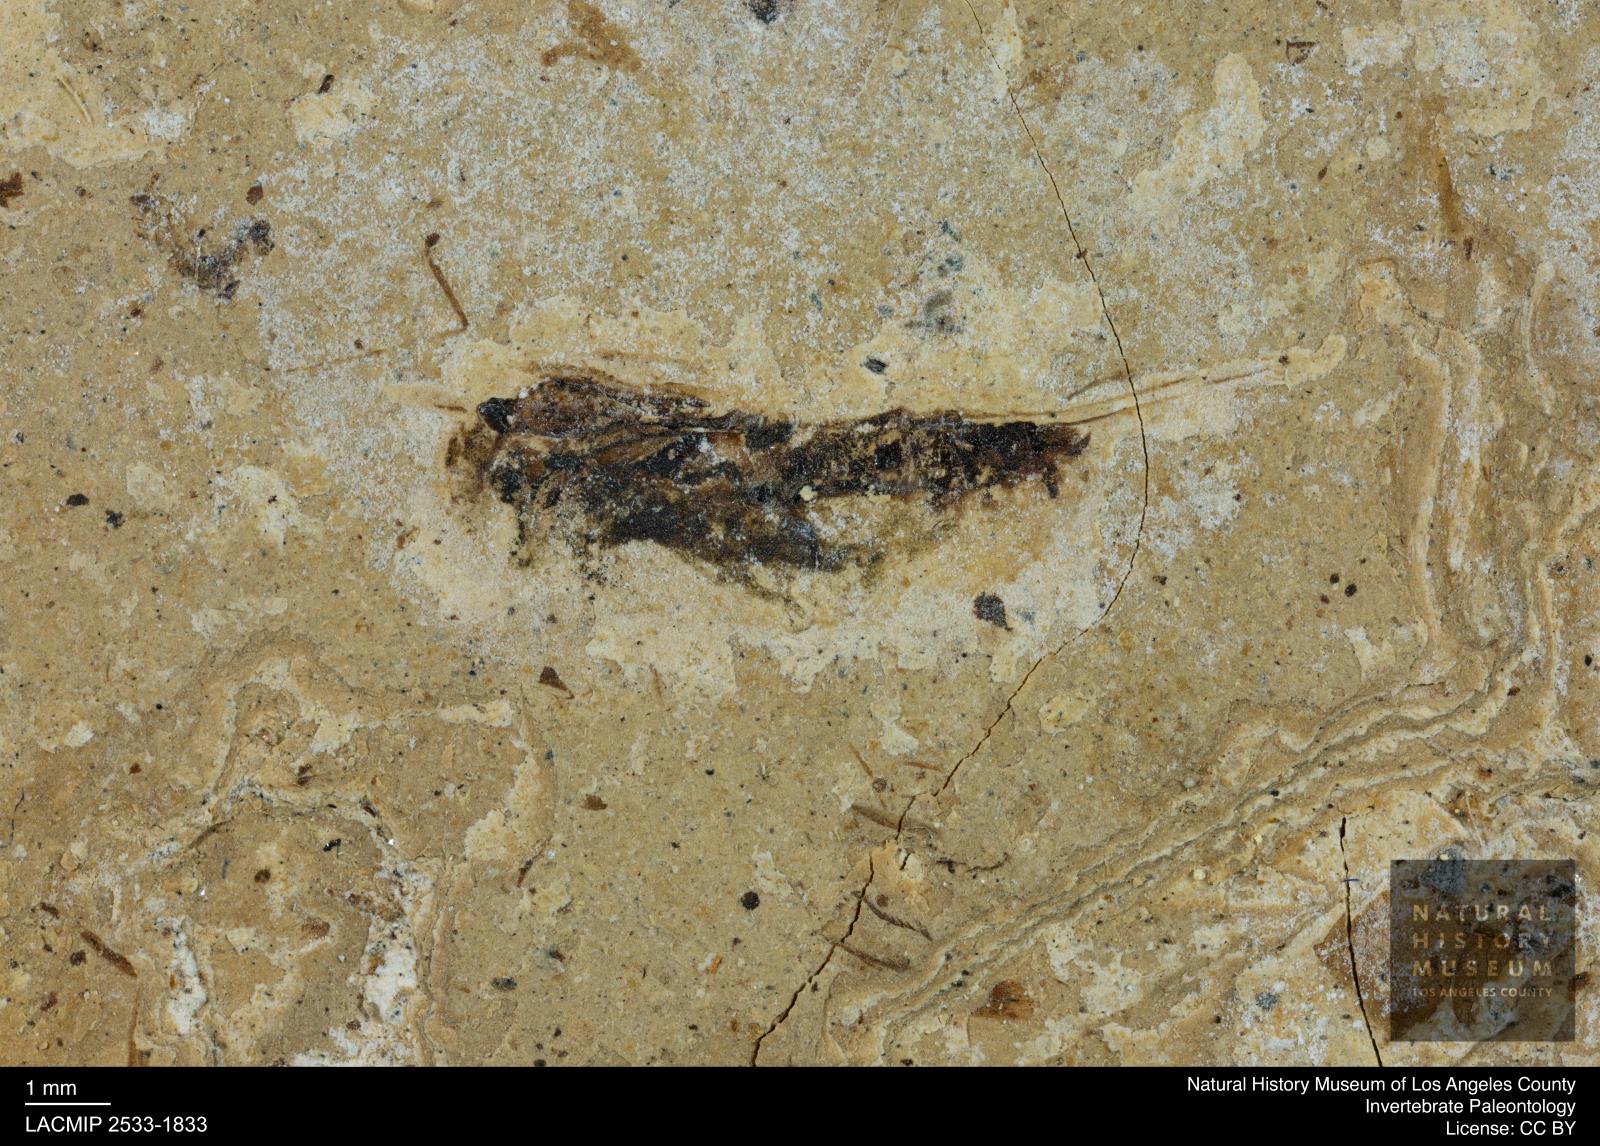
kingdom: Animalia
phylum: Arthropoda
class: Insecta
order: Hemiptera
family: Notonectidae
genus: Notonecta
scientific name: Notonecta
